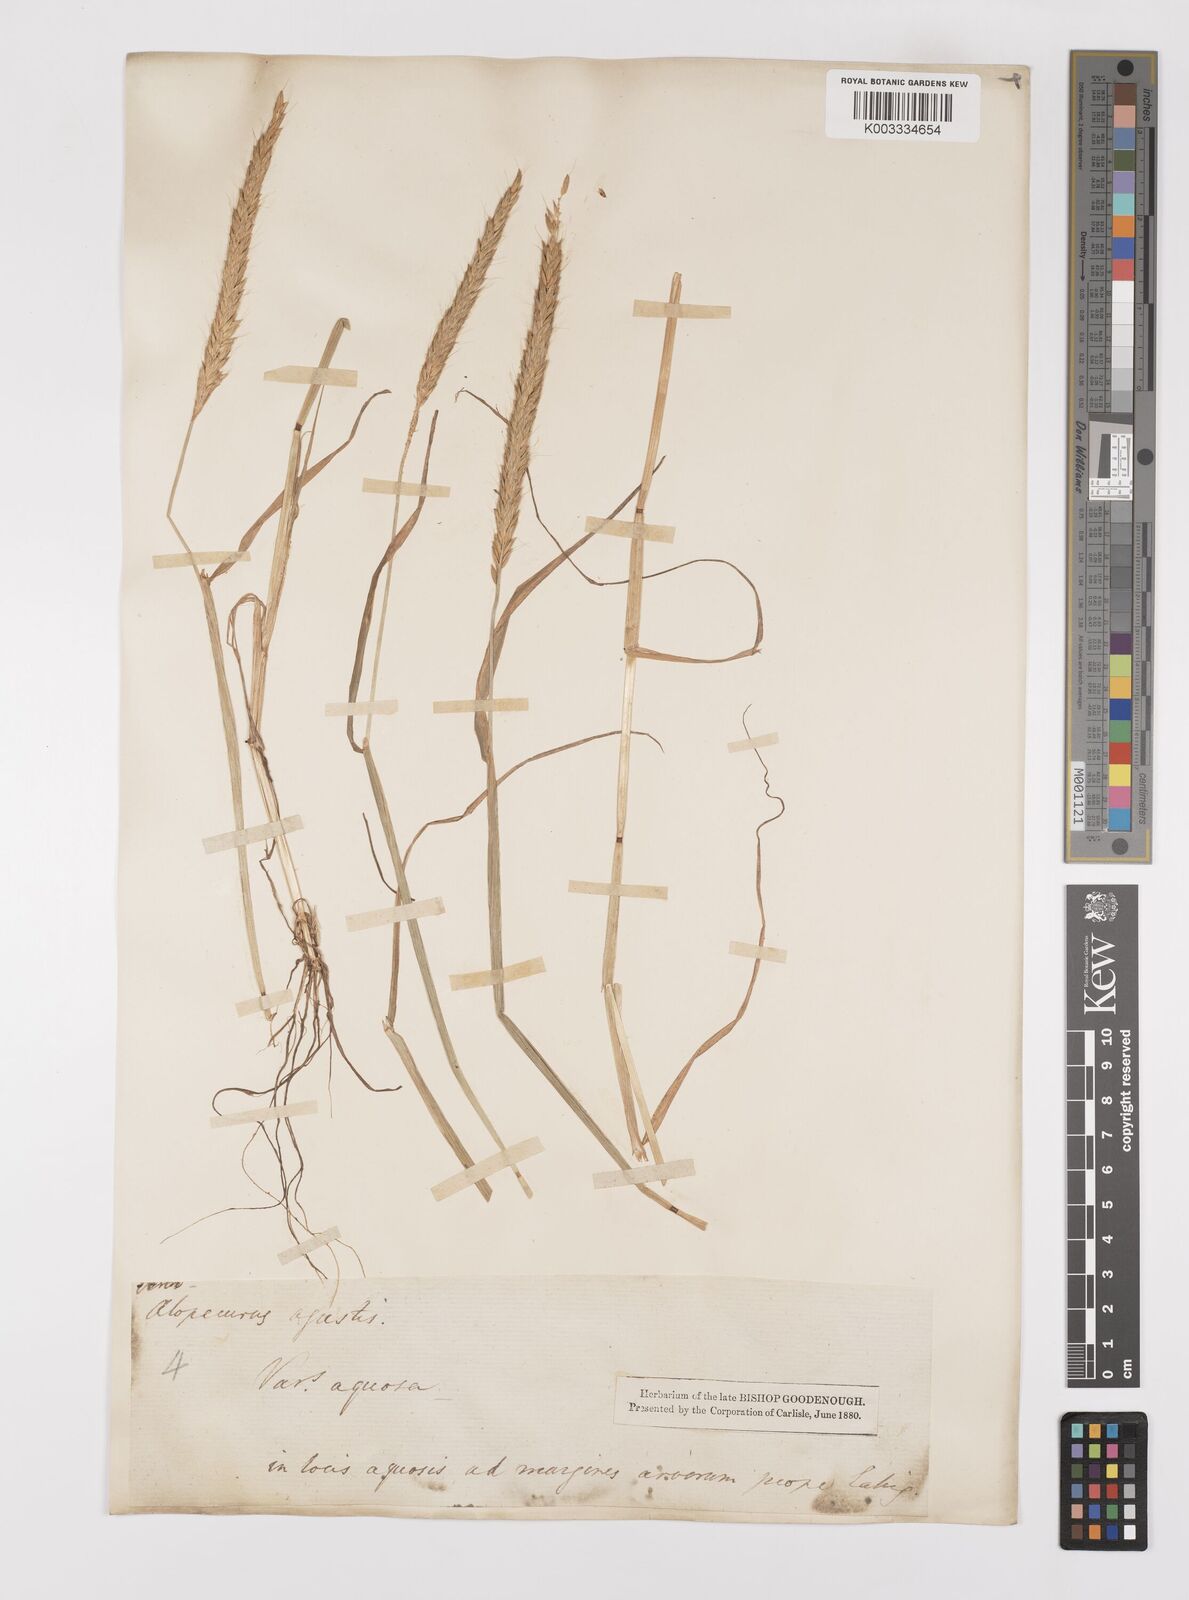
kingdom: Plantae
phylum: Tracheophyta
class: Liliopsida
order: Poales
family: Poaceae
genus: Alopecurus
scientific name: Alopecurus myosuroides
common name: Black-grass
